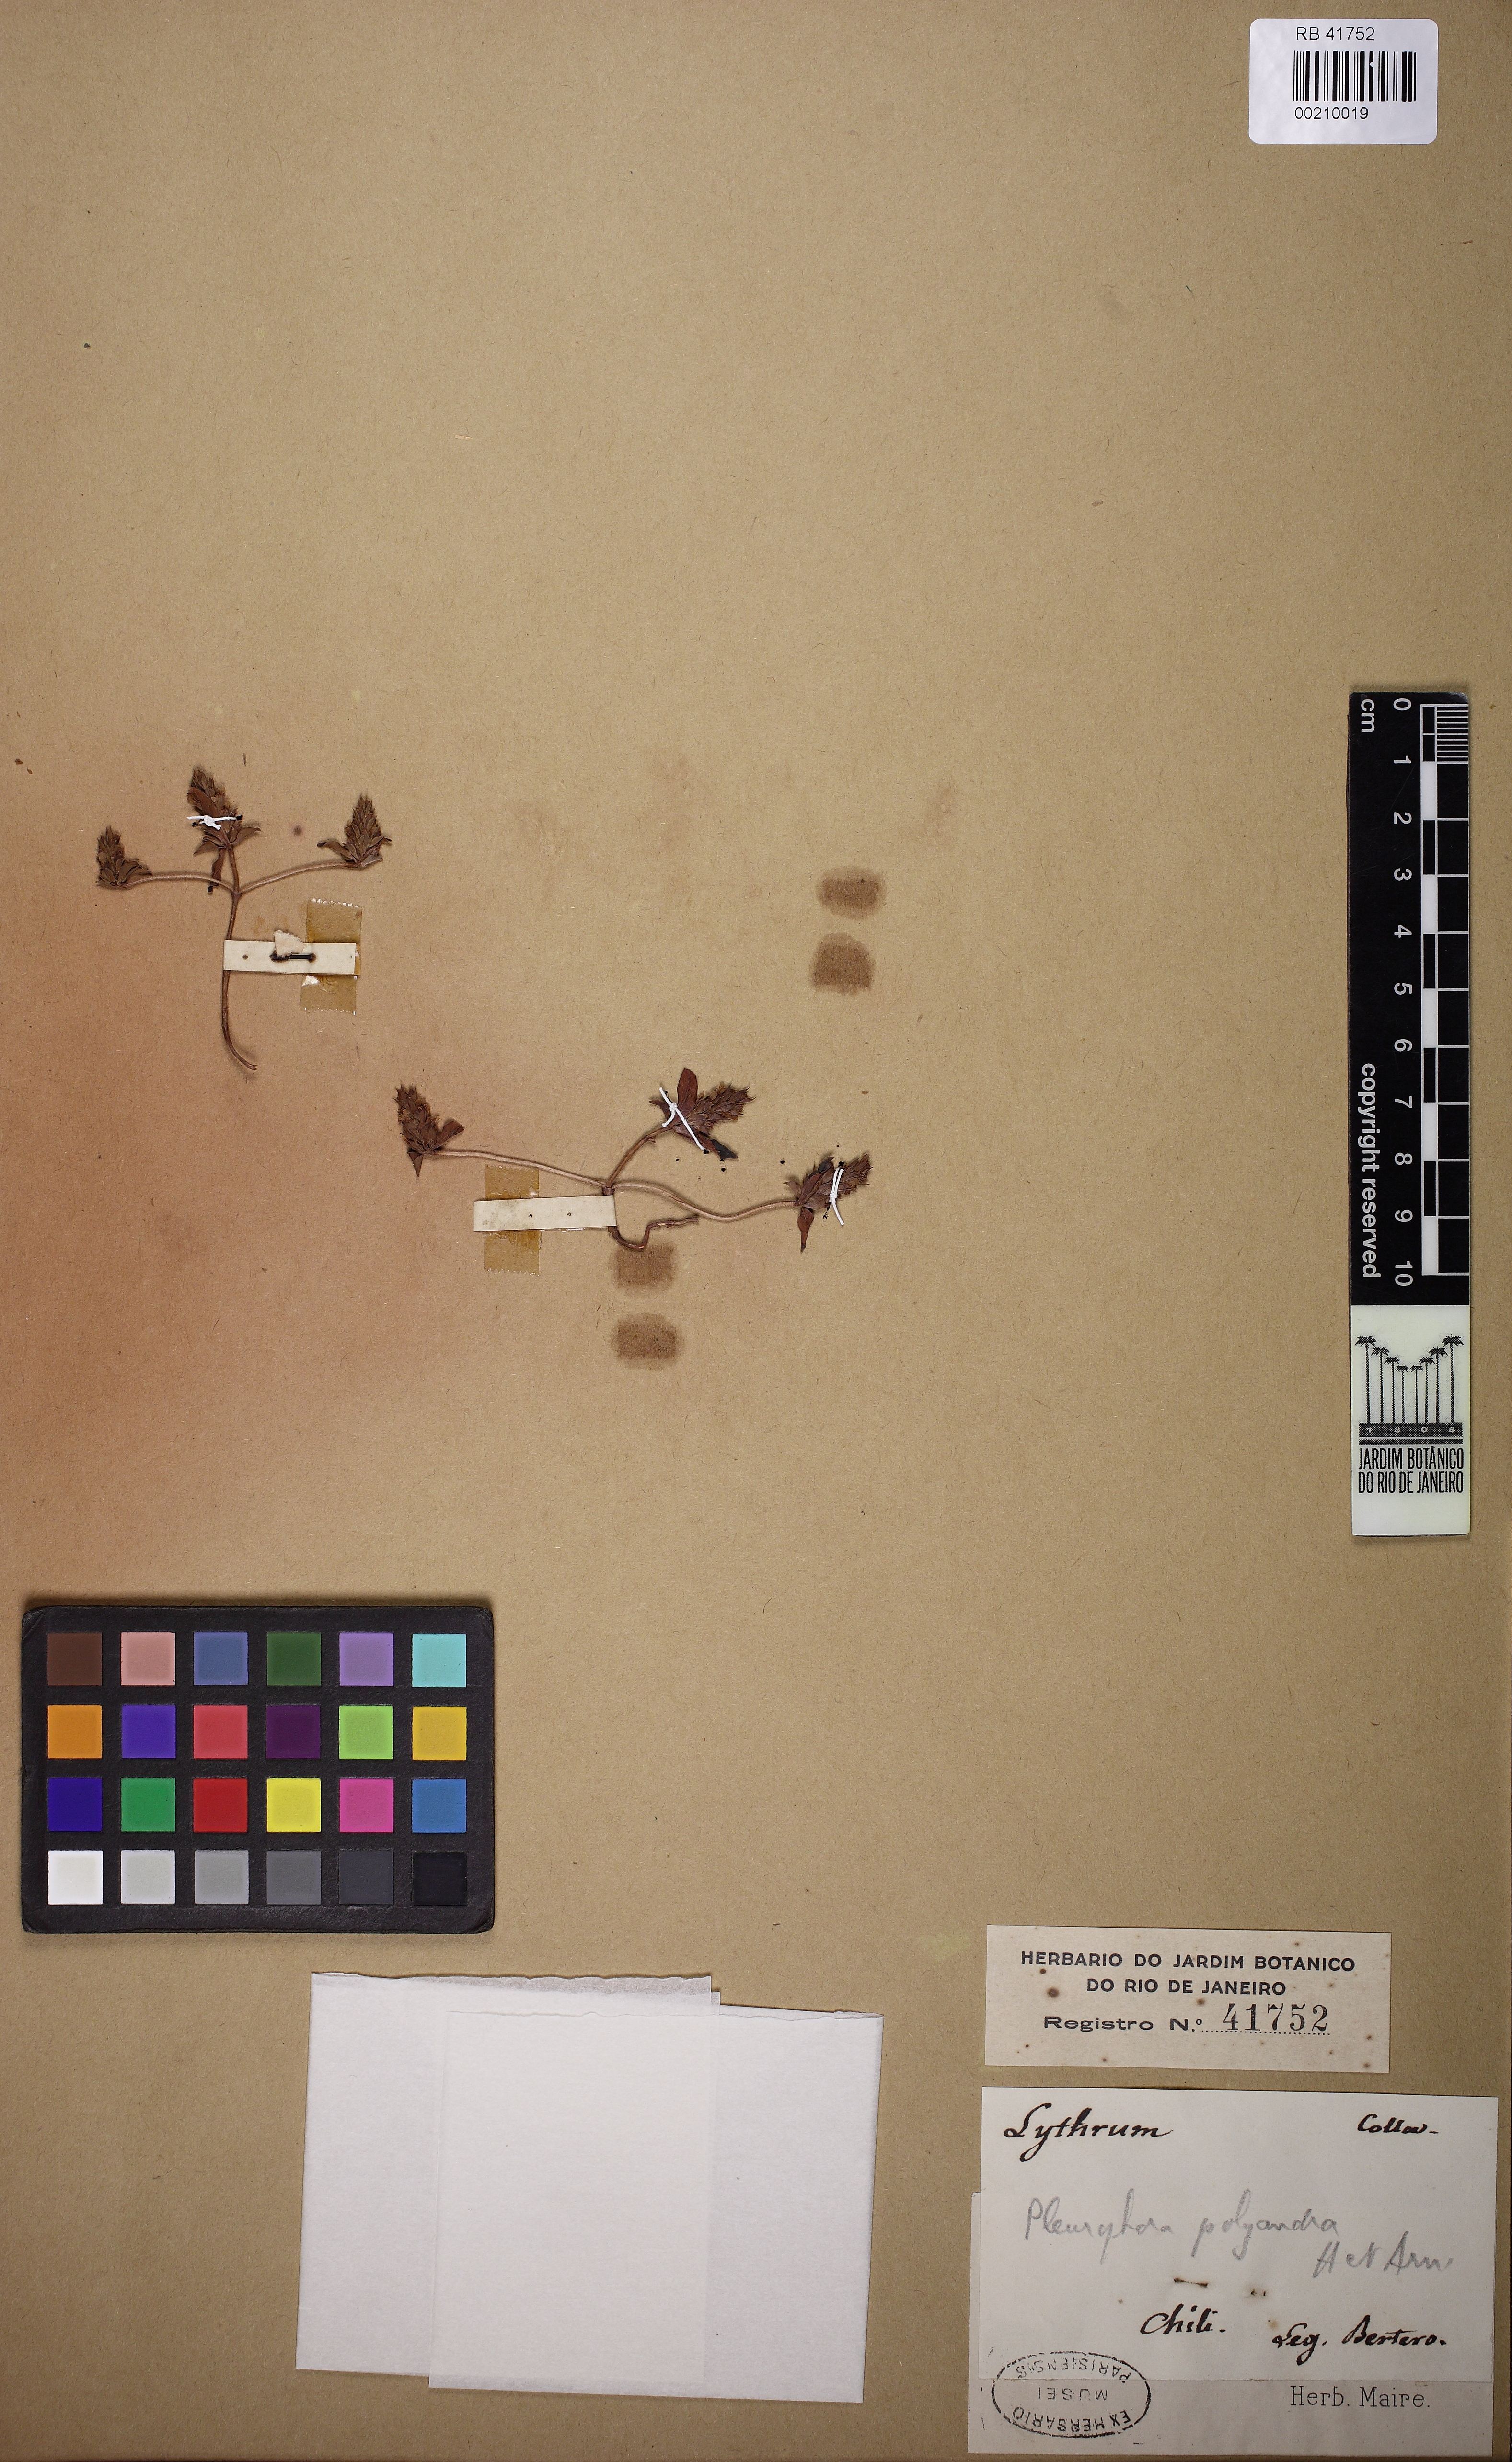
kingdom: Plantae
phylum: Tracheophyta
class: Magnoliopsida
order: Myrtales
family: Lythraceae
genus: Pleurophora
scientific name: Pleurophora polyandra
